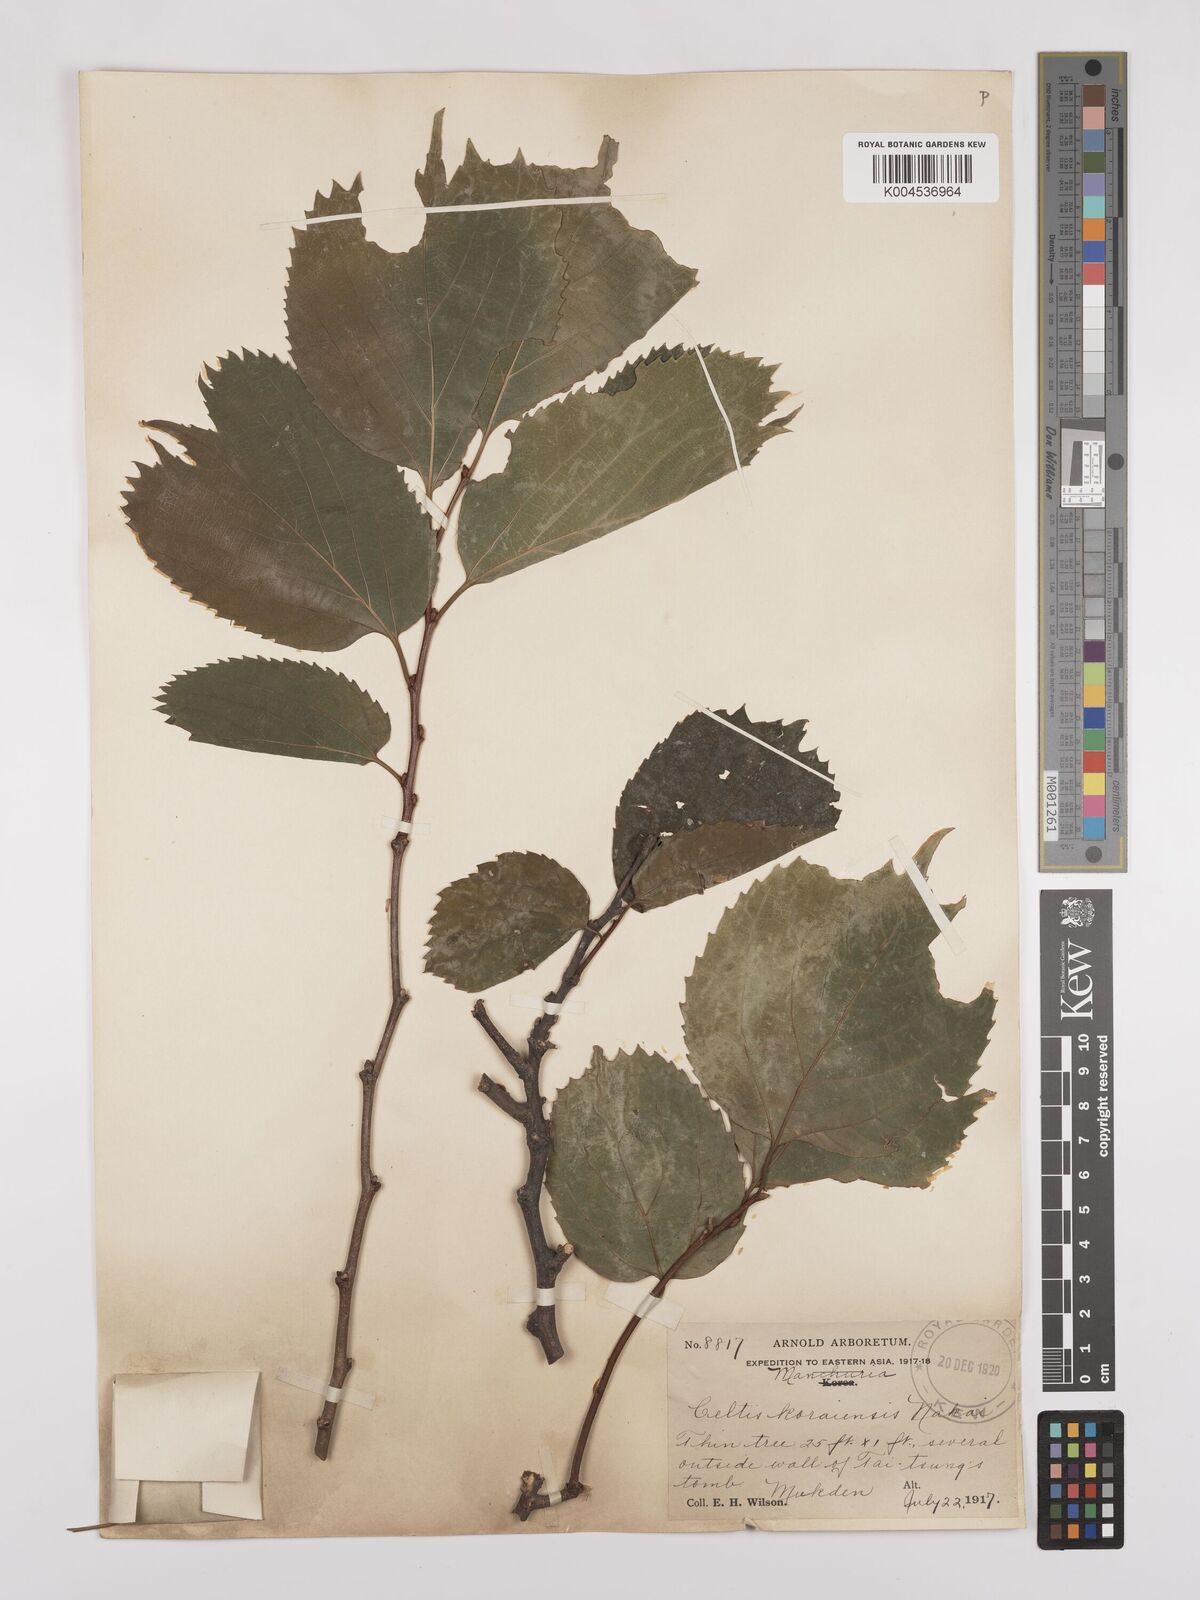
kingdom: Plantae
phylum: Tracheophyta
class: Magnoliopsida
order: Rosales
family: Cannabaceae
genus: Celtis
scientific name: Celtis koraiensis
